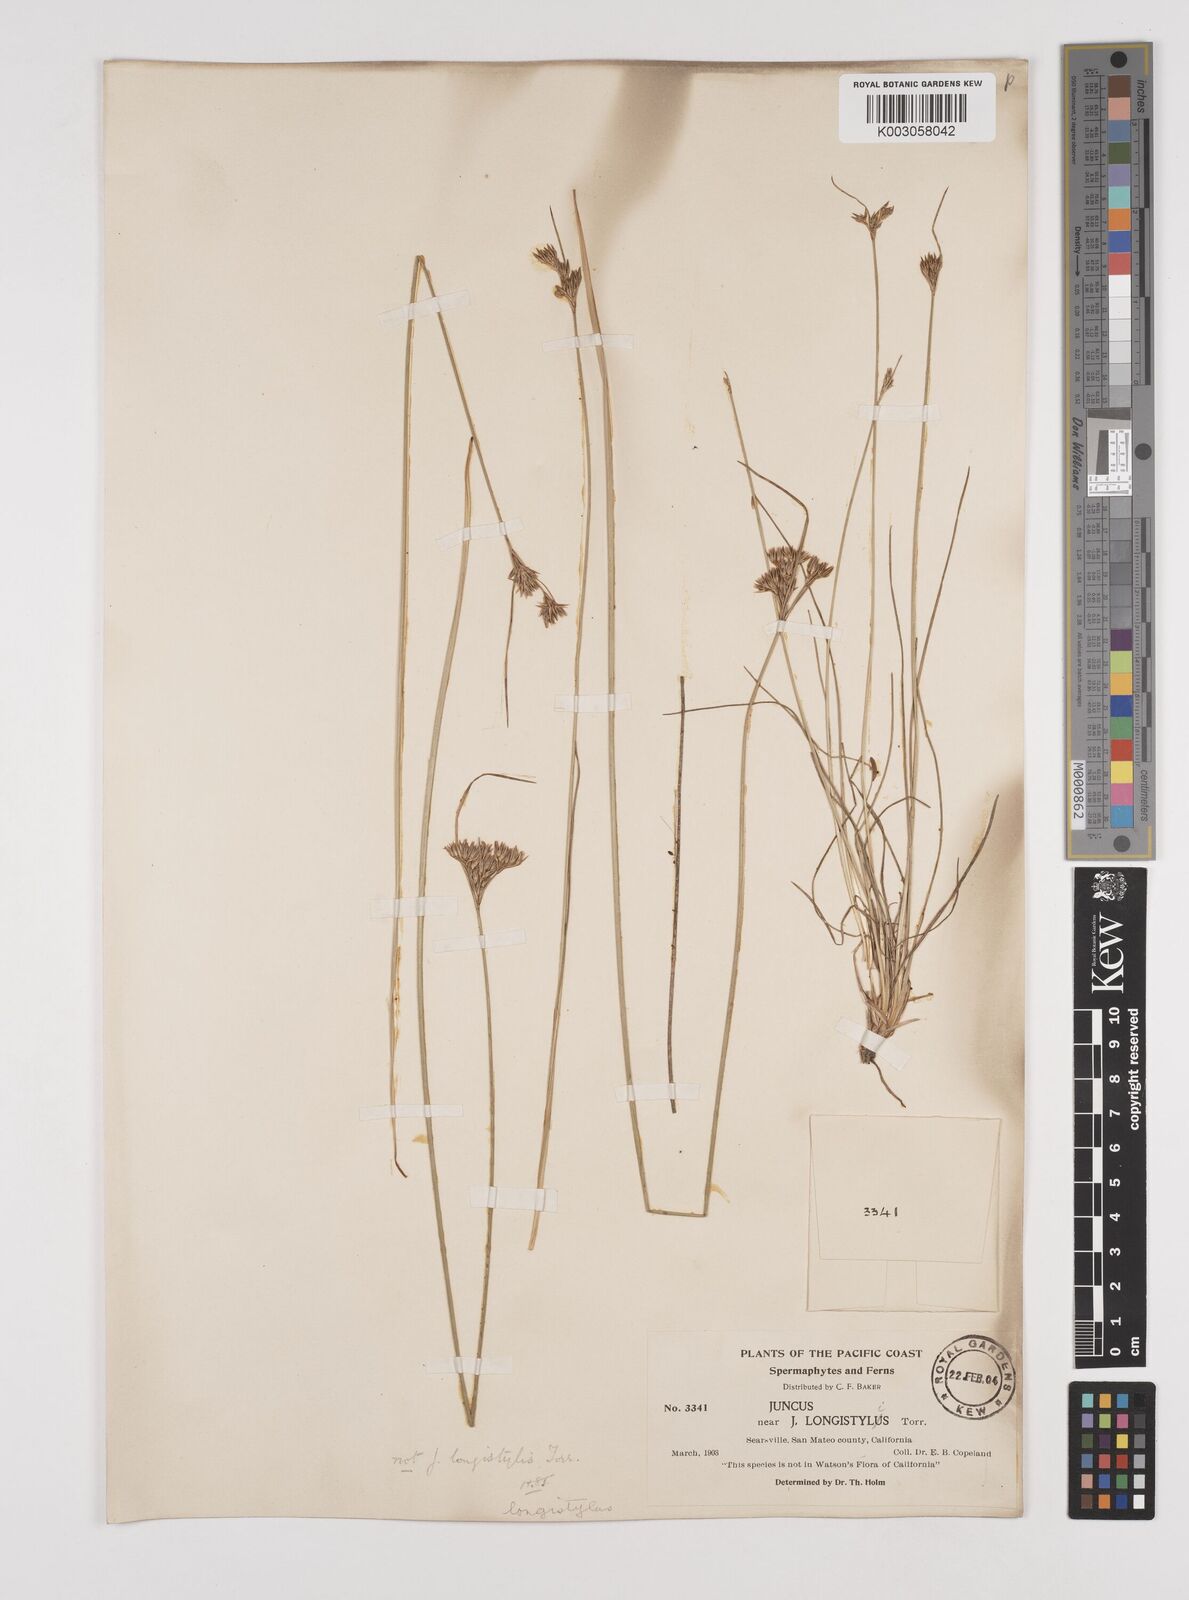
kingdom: Plantae
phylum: Tracheophyta
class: Liliopsida
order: Poales
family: Juncaceae
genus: Juncus
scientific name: Juncus longistylis
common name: Long-style rush
